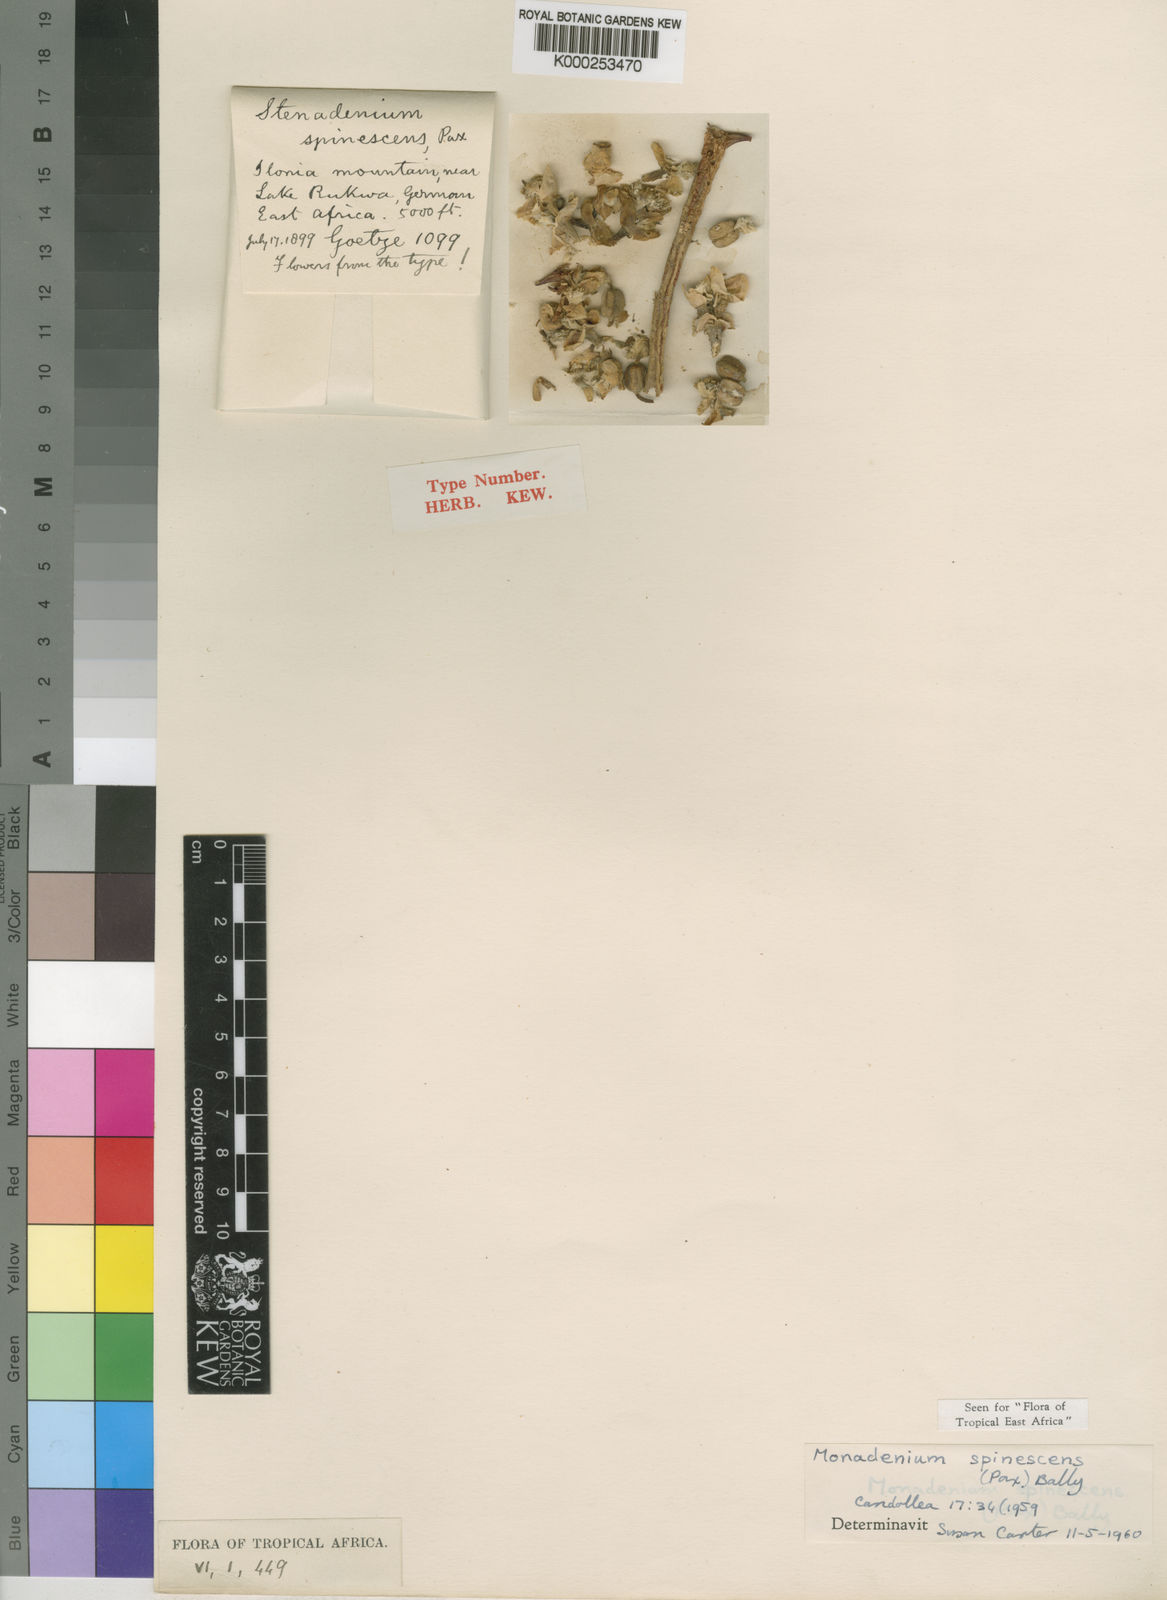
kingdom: Plantae
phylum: Tracheophyta
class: Magnoliopsida
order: Malpighiales
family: Euphorbiaceae
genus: Euphorbia
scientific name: Euphorbia Monadenium spinescens
